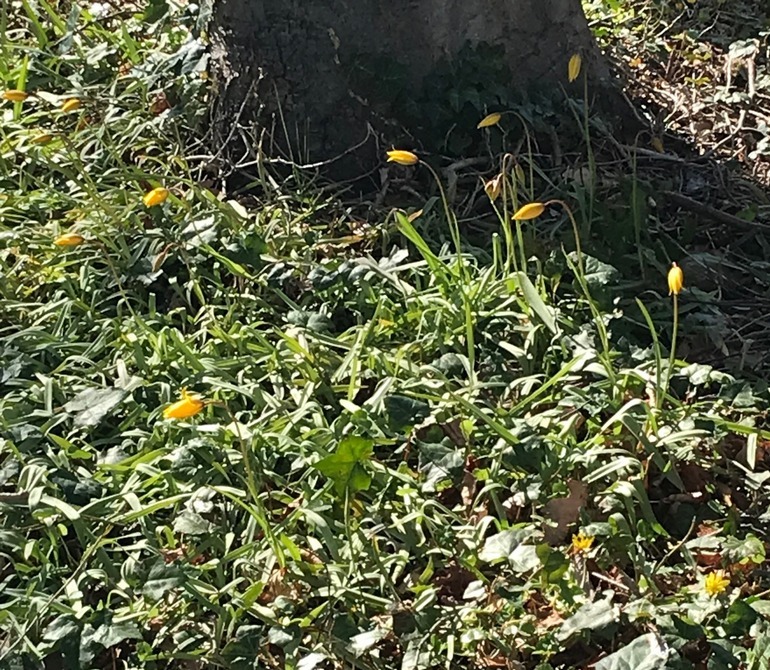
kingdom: Plantae
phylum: Tracheophyta
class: Liliopsida
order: Liliales
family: Liliaceae
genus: Tulipa
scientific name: Tulipa sylvestris
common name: Vild tulipan
